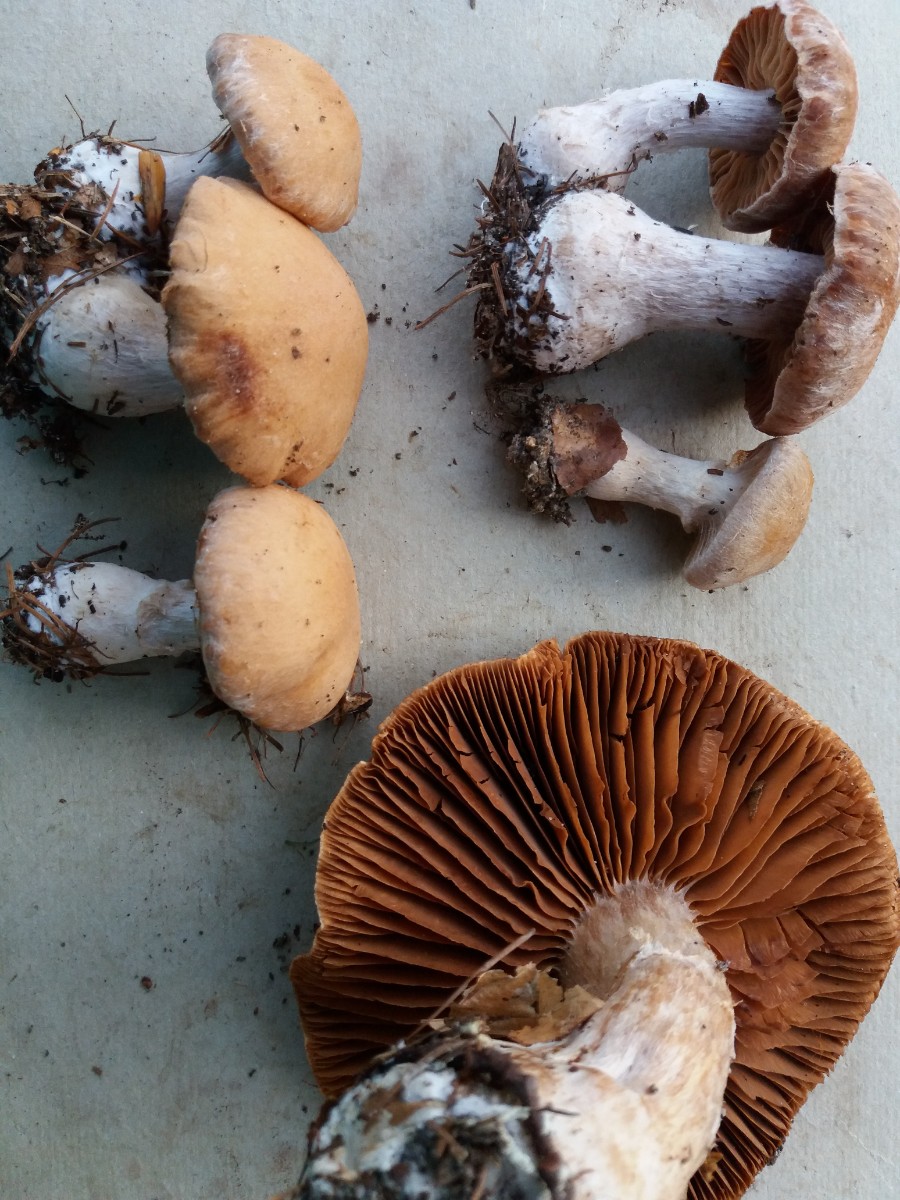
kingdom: Fungi
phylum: Basidiomycota
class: Agaricomycetes
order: Agaricales
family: Cortinariaceae
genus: Cortinarius
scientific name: Cortinarius bivelus
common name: orangebrun slørhat
